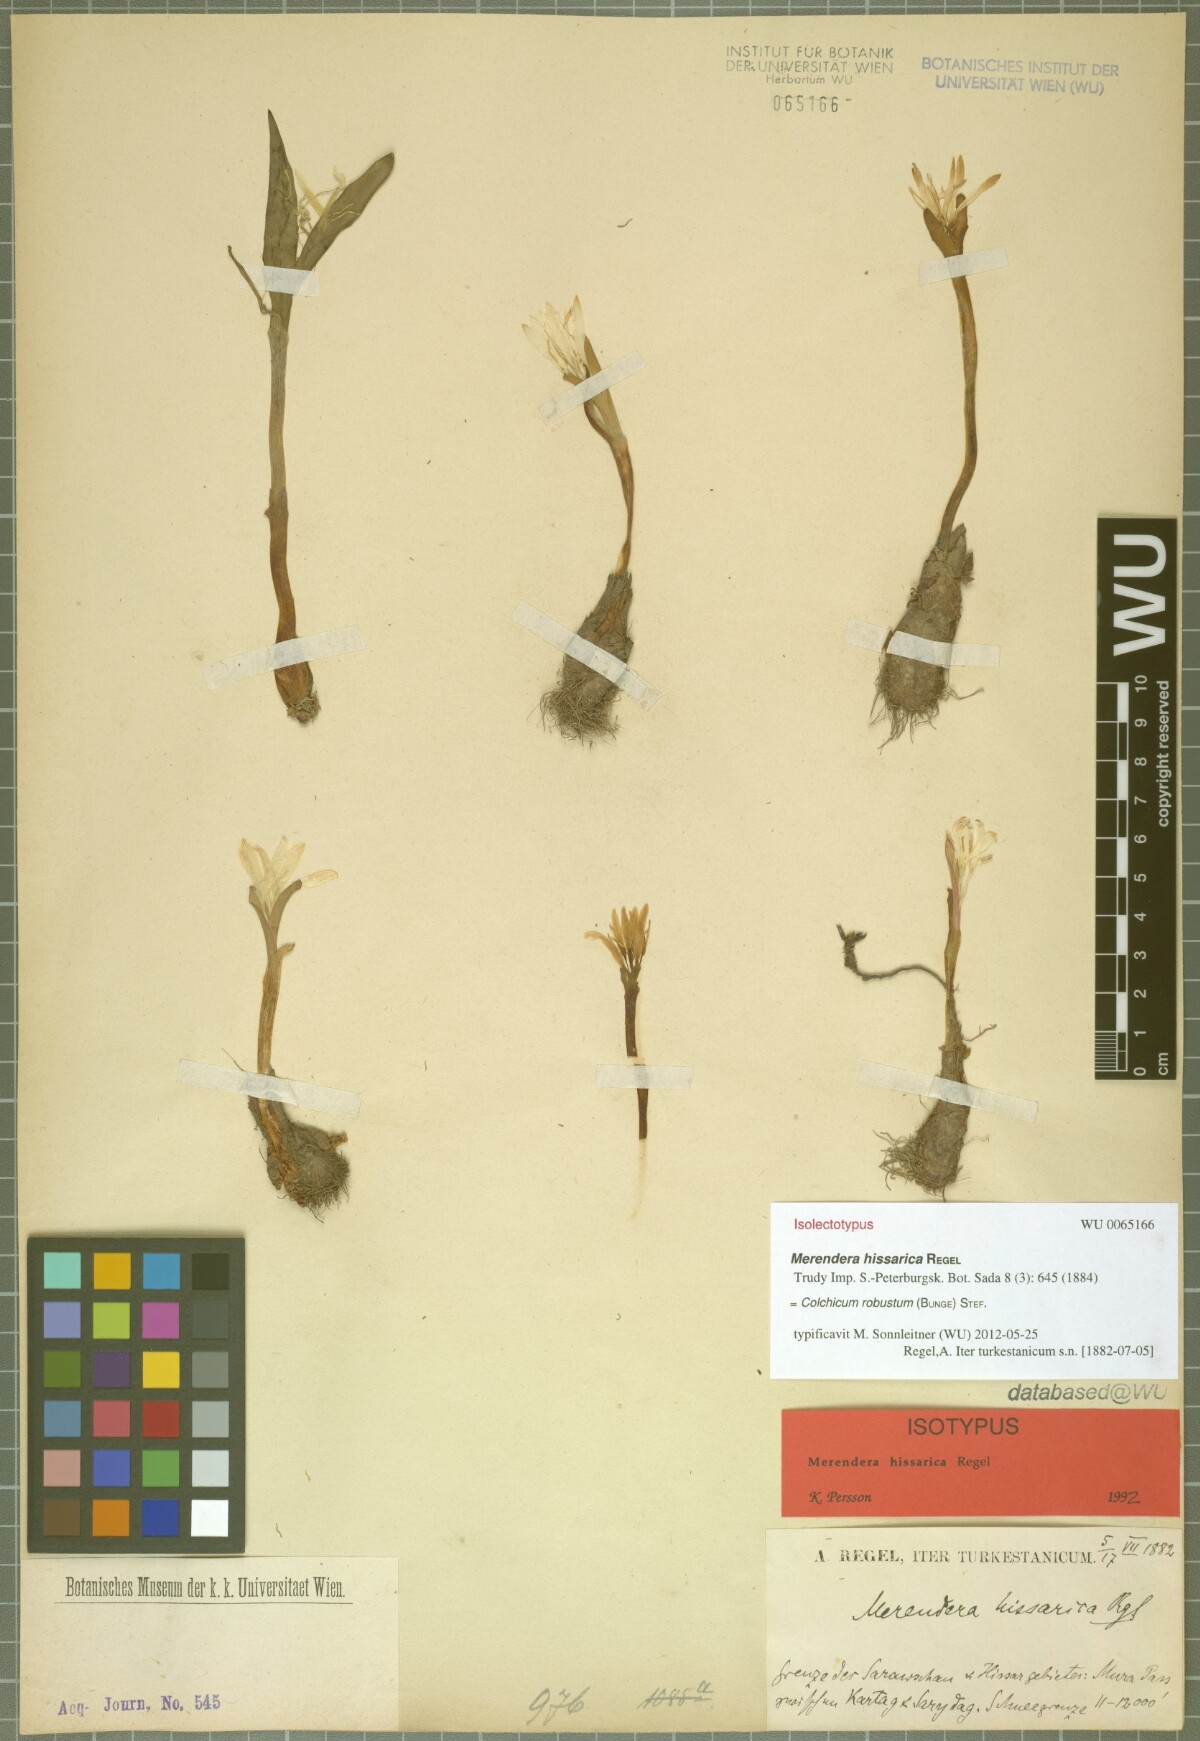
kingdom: Plantae
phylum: Tracheophyta
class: Liliopsida
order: Liliales
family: Colchicaceae
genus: Colchicum
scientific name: Colchicum robustum
